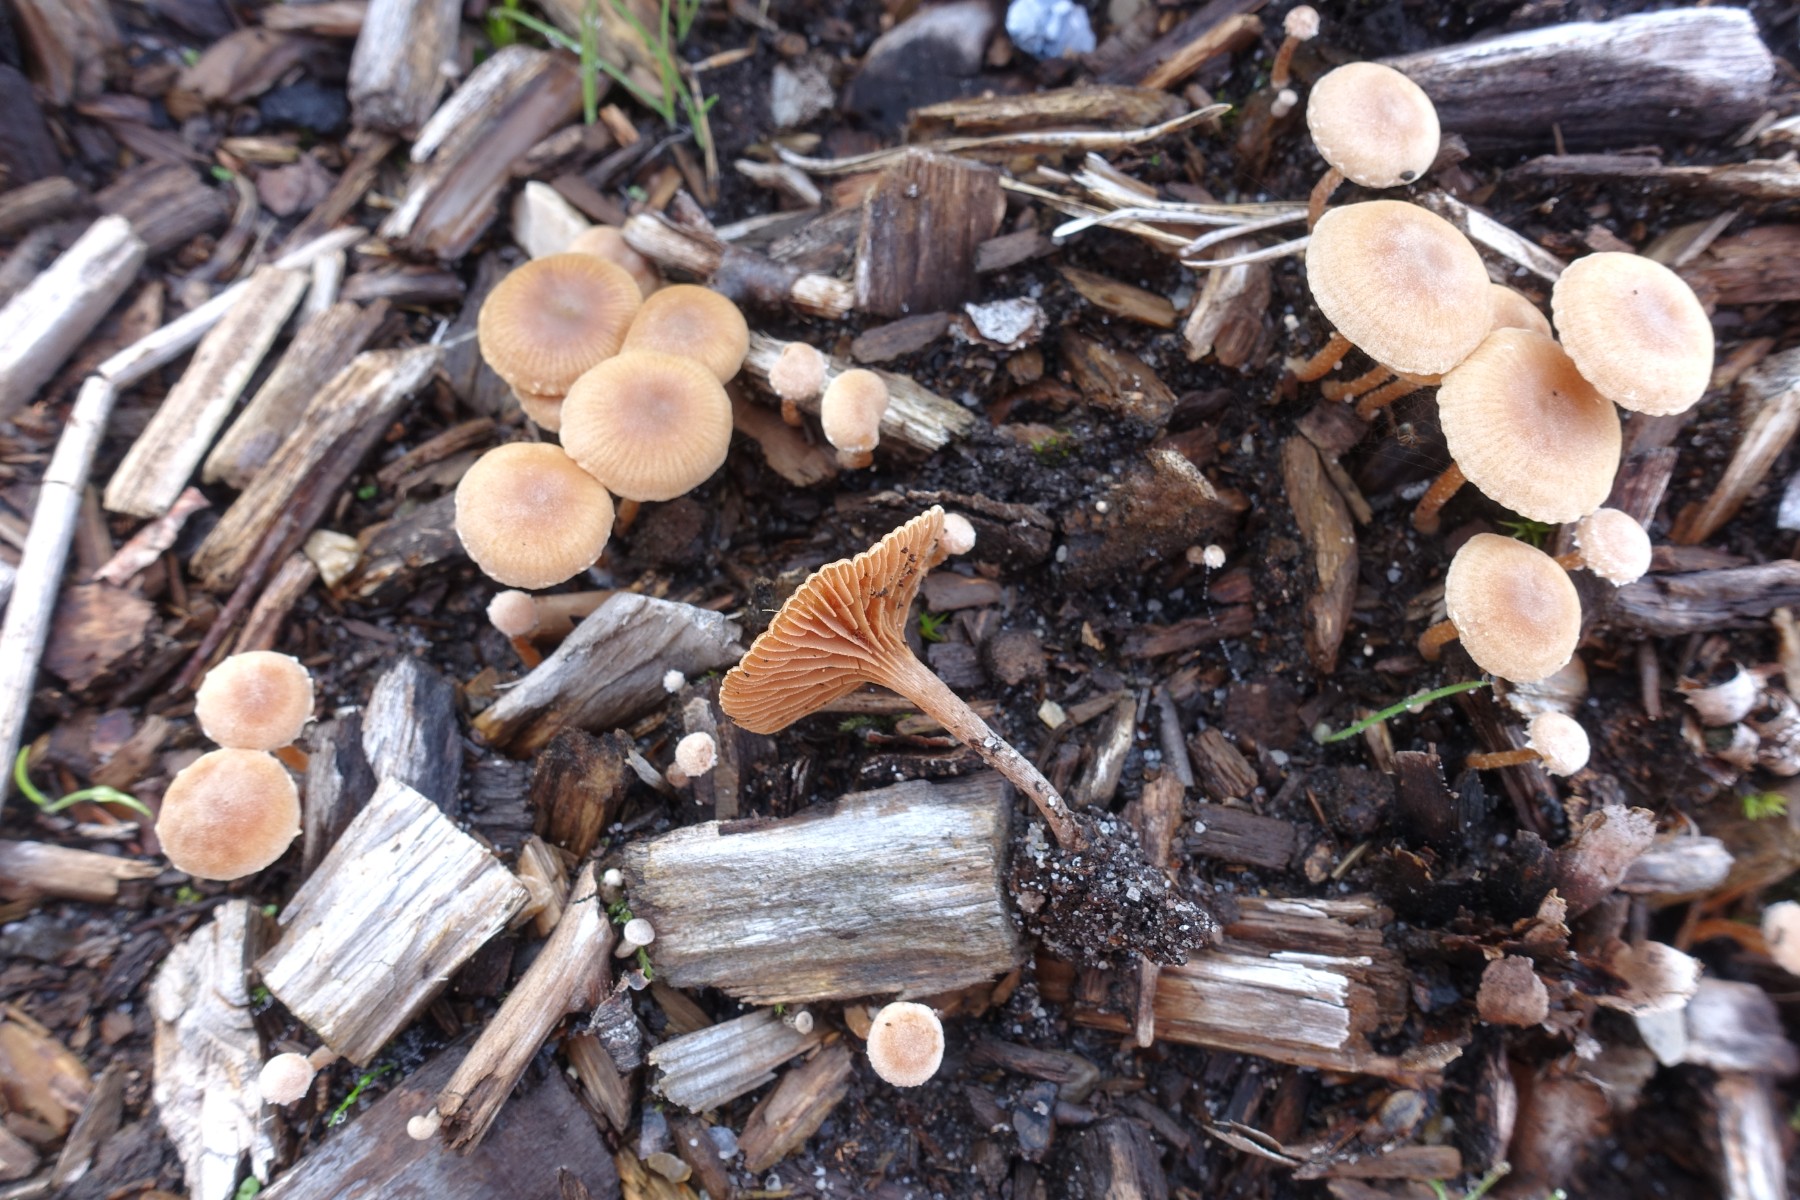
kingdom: Fungi
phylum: Basidiomycota
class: Agaricomycetes
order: Agaricales
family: Tubariaceae
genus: Tubaria
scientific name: Tubaria furfuracea
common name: kliddet fnughat
